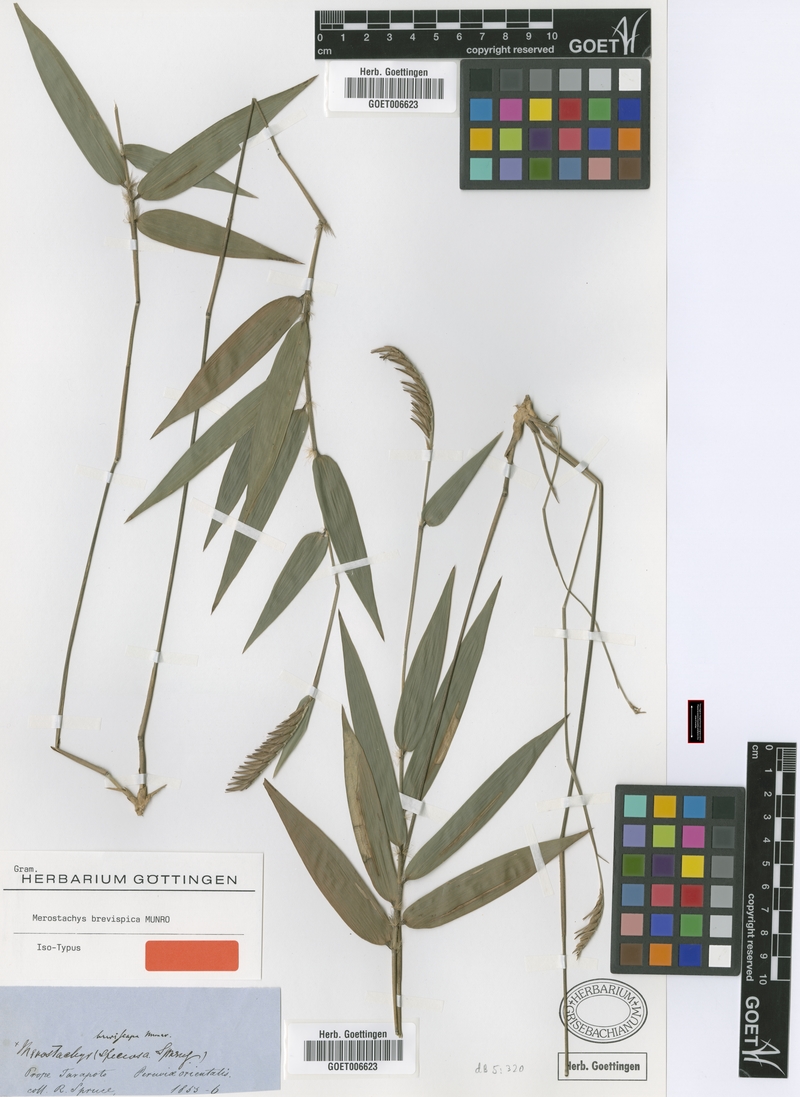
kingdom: Plantae
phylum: Tracheophyta
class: Liliopsida
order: Poales
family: Poaceae
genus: Merostachys
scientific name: Merostachys brevispica
